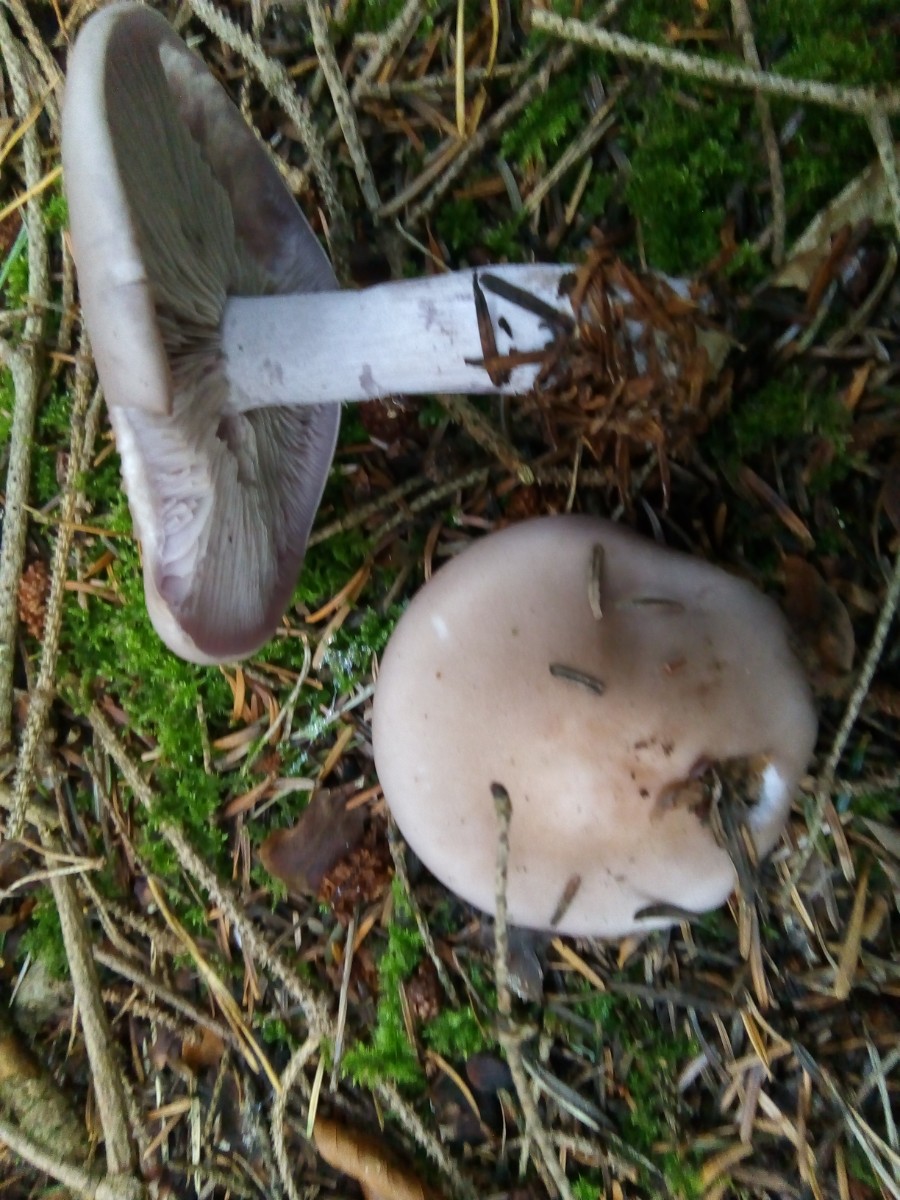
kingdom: Fungi
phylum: Basidiomycota
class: Agaricomycetes
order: Agaricales
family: Tricholomataceae
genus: Lepista
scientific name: Lepista nuda
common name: violet hekseringshat
